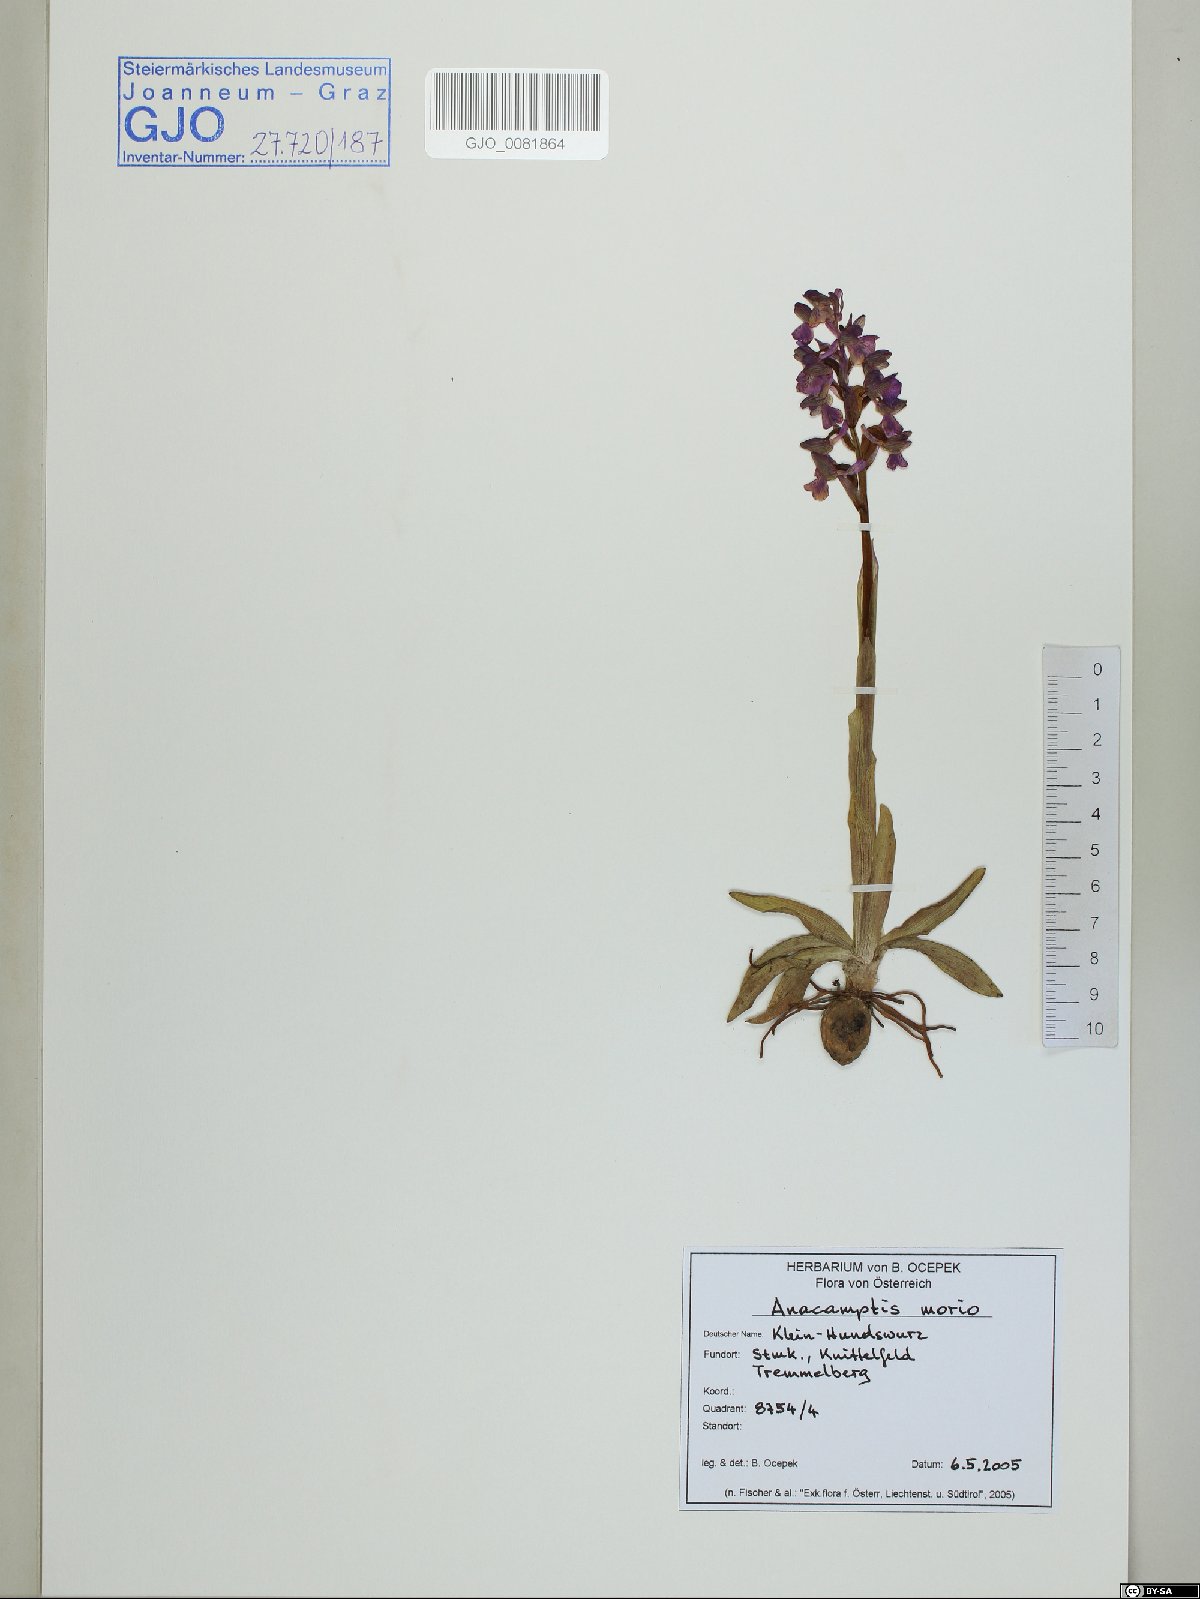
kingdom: Plantae
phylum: Tracheophyta
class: Liliopsida
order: Asparagales
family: Orchidaceae
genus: Anacamptis
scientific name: Anacamptis morio
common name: Green-winged orchid
